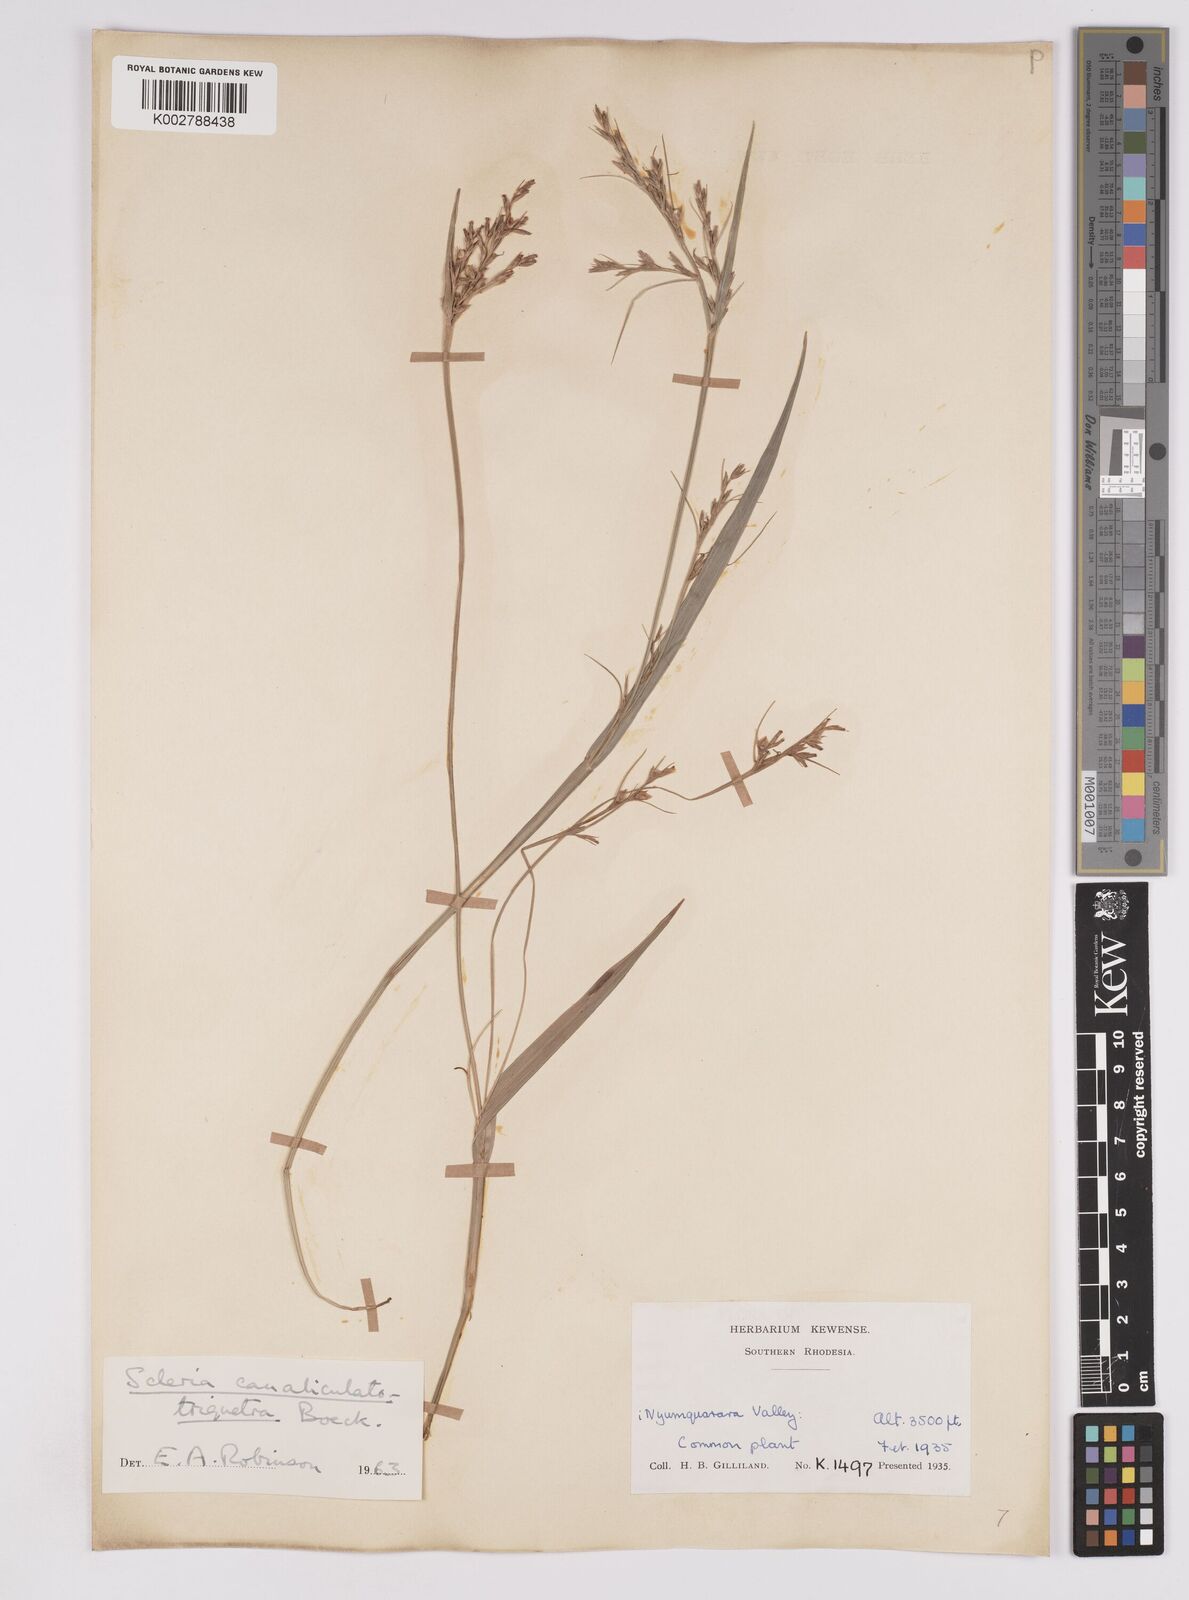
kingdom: Plantae
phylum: Tracheophyta
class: Liliopsida
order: Poales
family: Cyperaceae
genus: Scleria
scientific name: Scleria lagoensis
